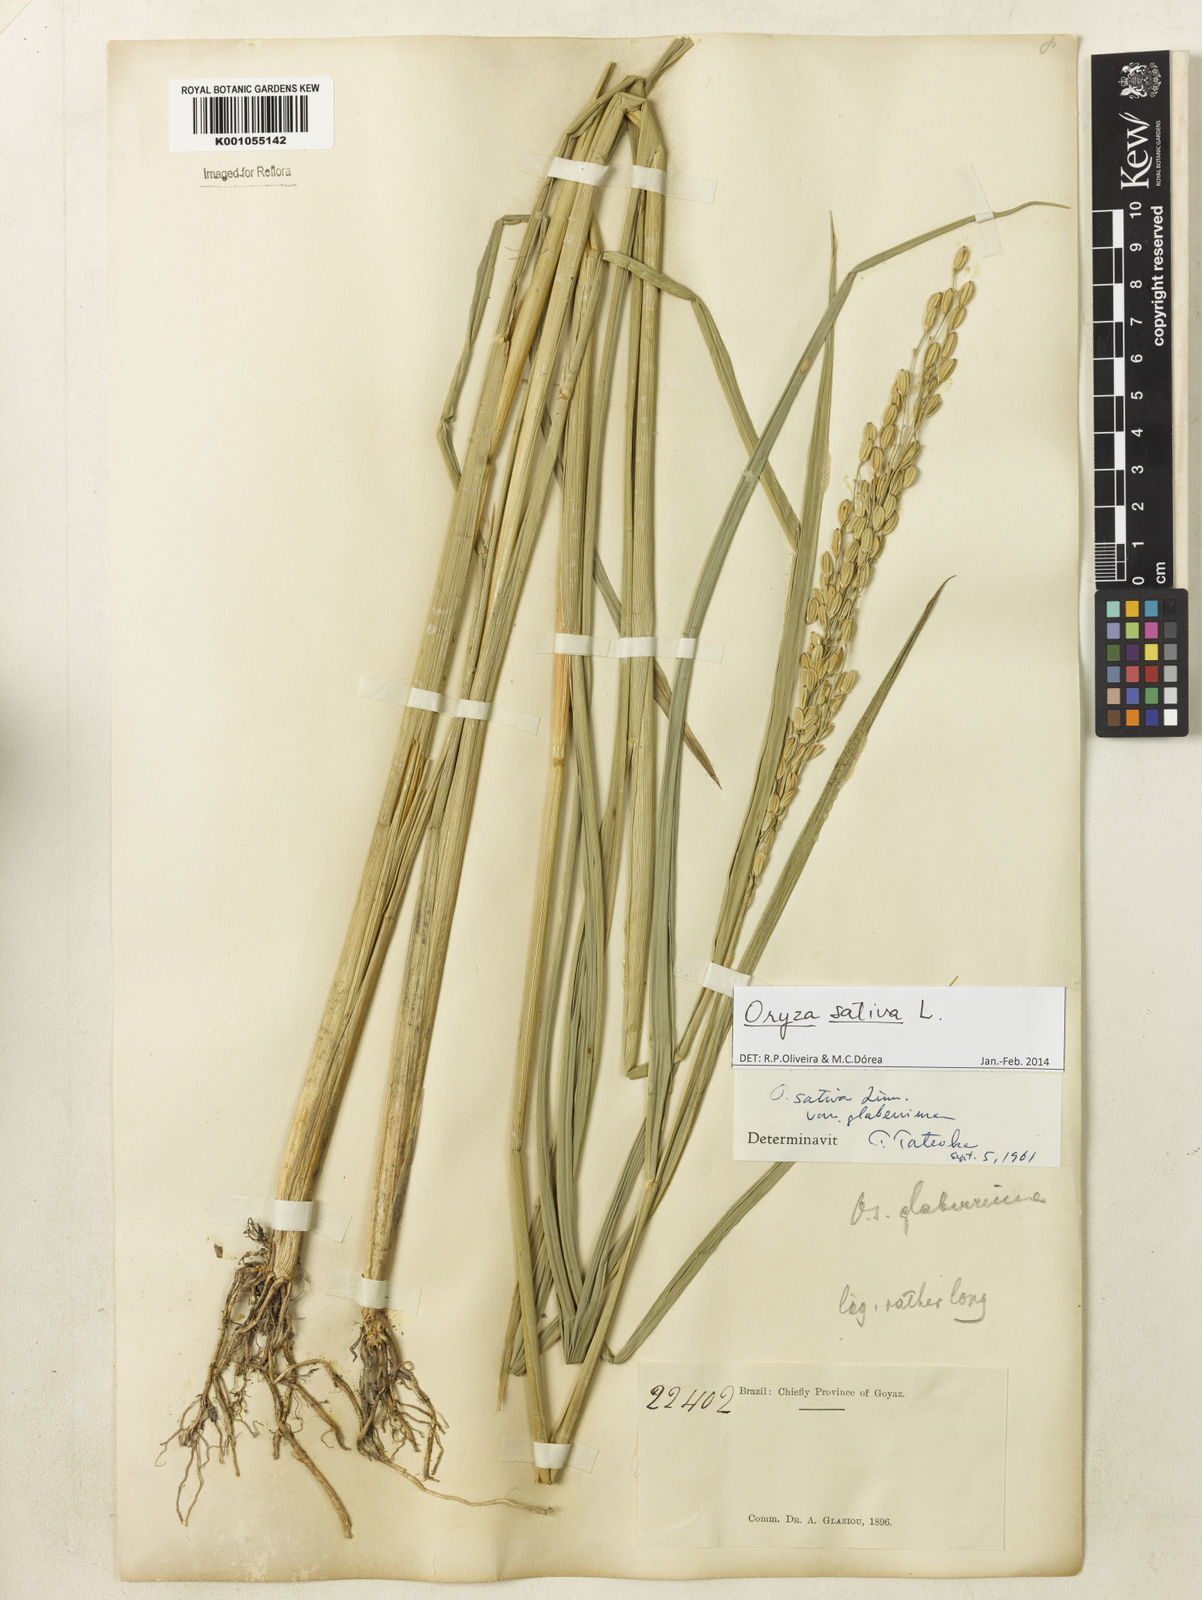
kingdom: Plantae
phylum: Tracheophyta
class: Liliopsida
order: Poales
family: Poaceae
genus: Oryza
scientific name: Oryza sativa
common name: Rice
